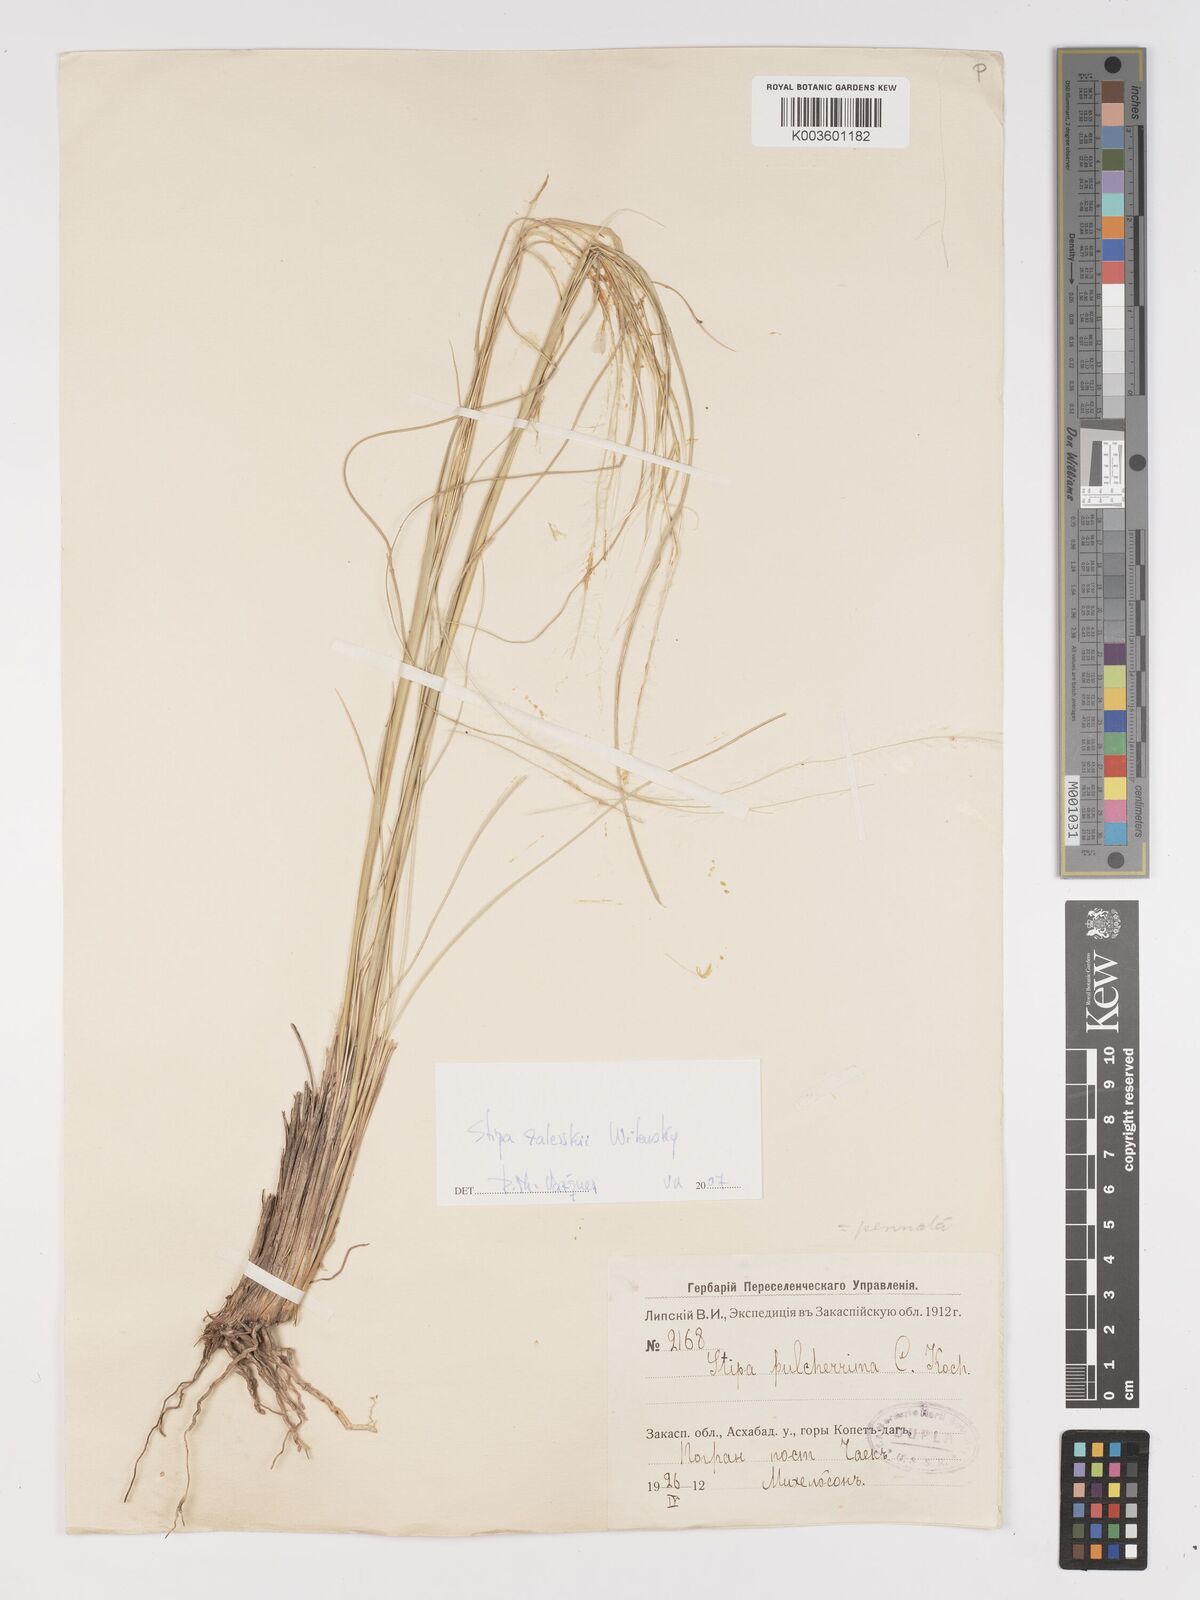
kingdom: Plantae
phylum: Tracheophyta
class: Liliopsida
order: Poales
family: Poaceae
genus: Stipa
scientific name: Stipa
